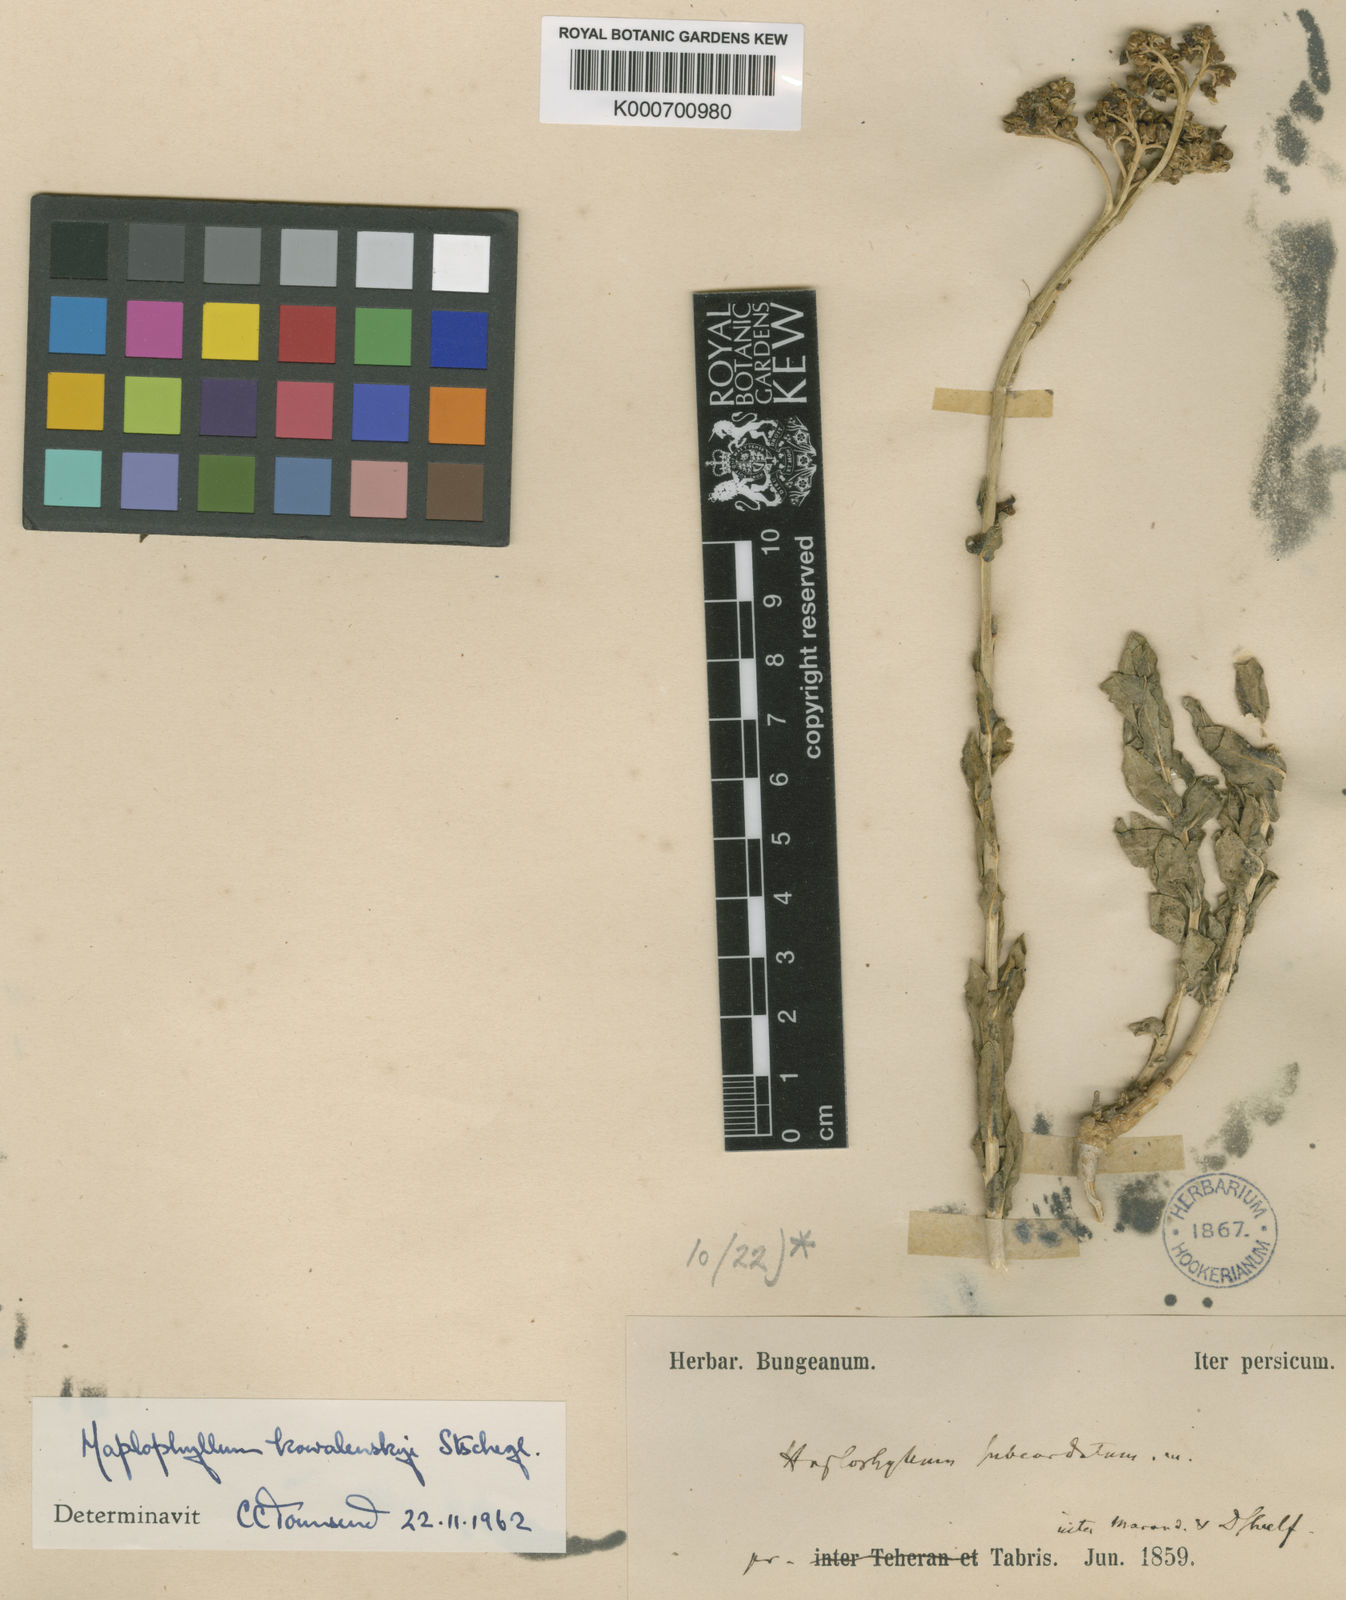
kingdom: Plantae
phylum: Tracheophyta
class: Magnoliopsida
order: Sapindales
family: Rutaceae
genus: Haplophyllum
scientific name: Haplophyllum kowalenskyi
